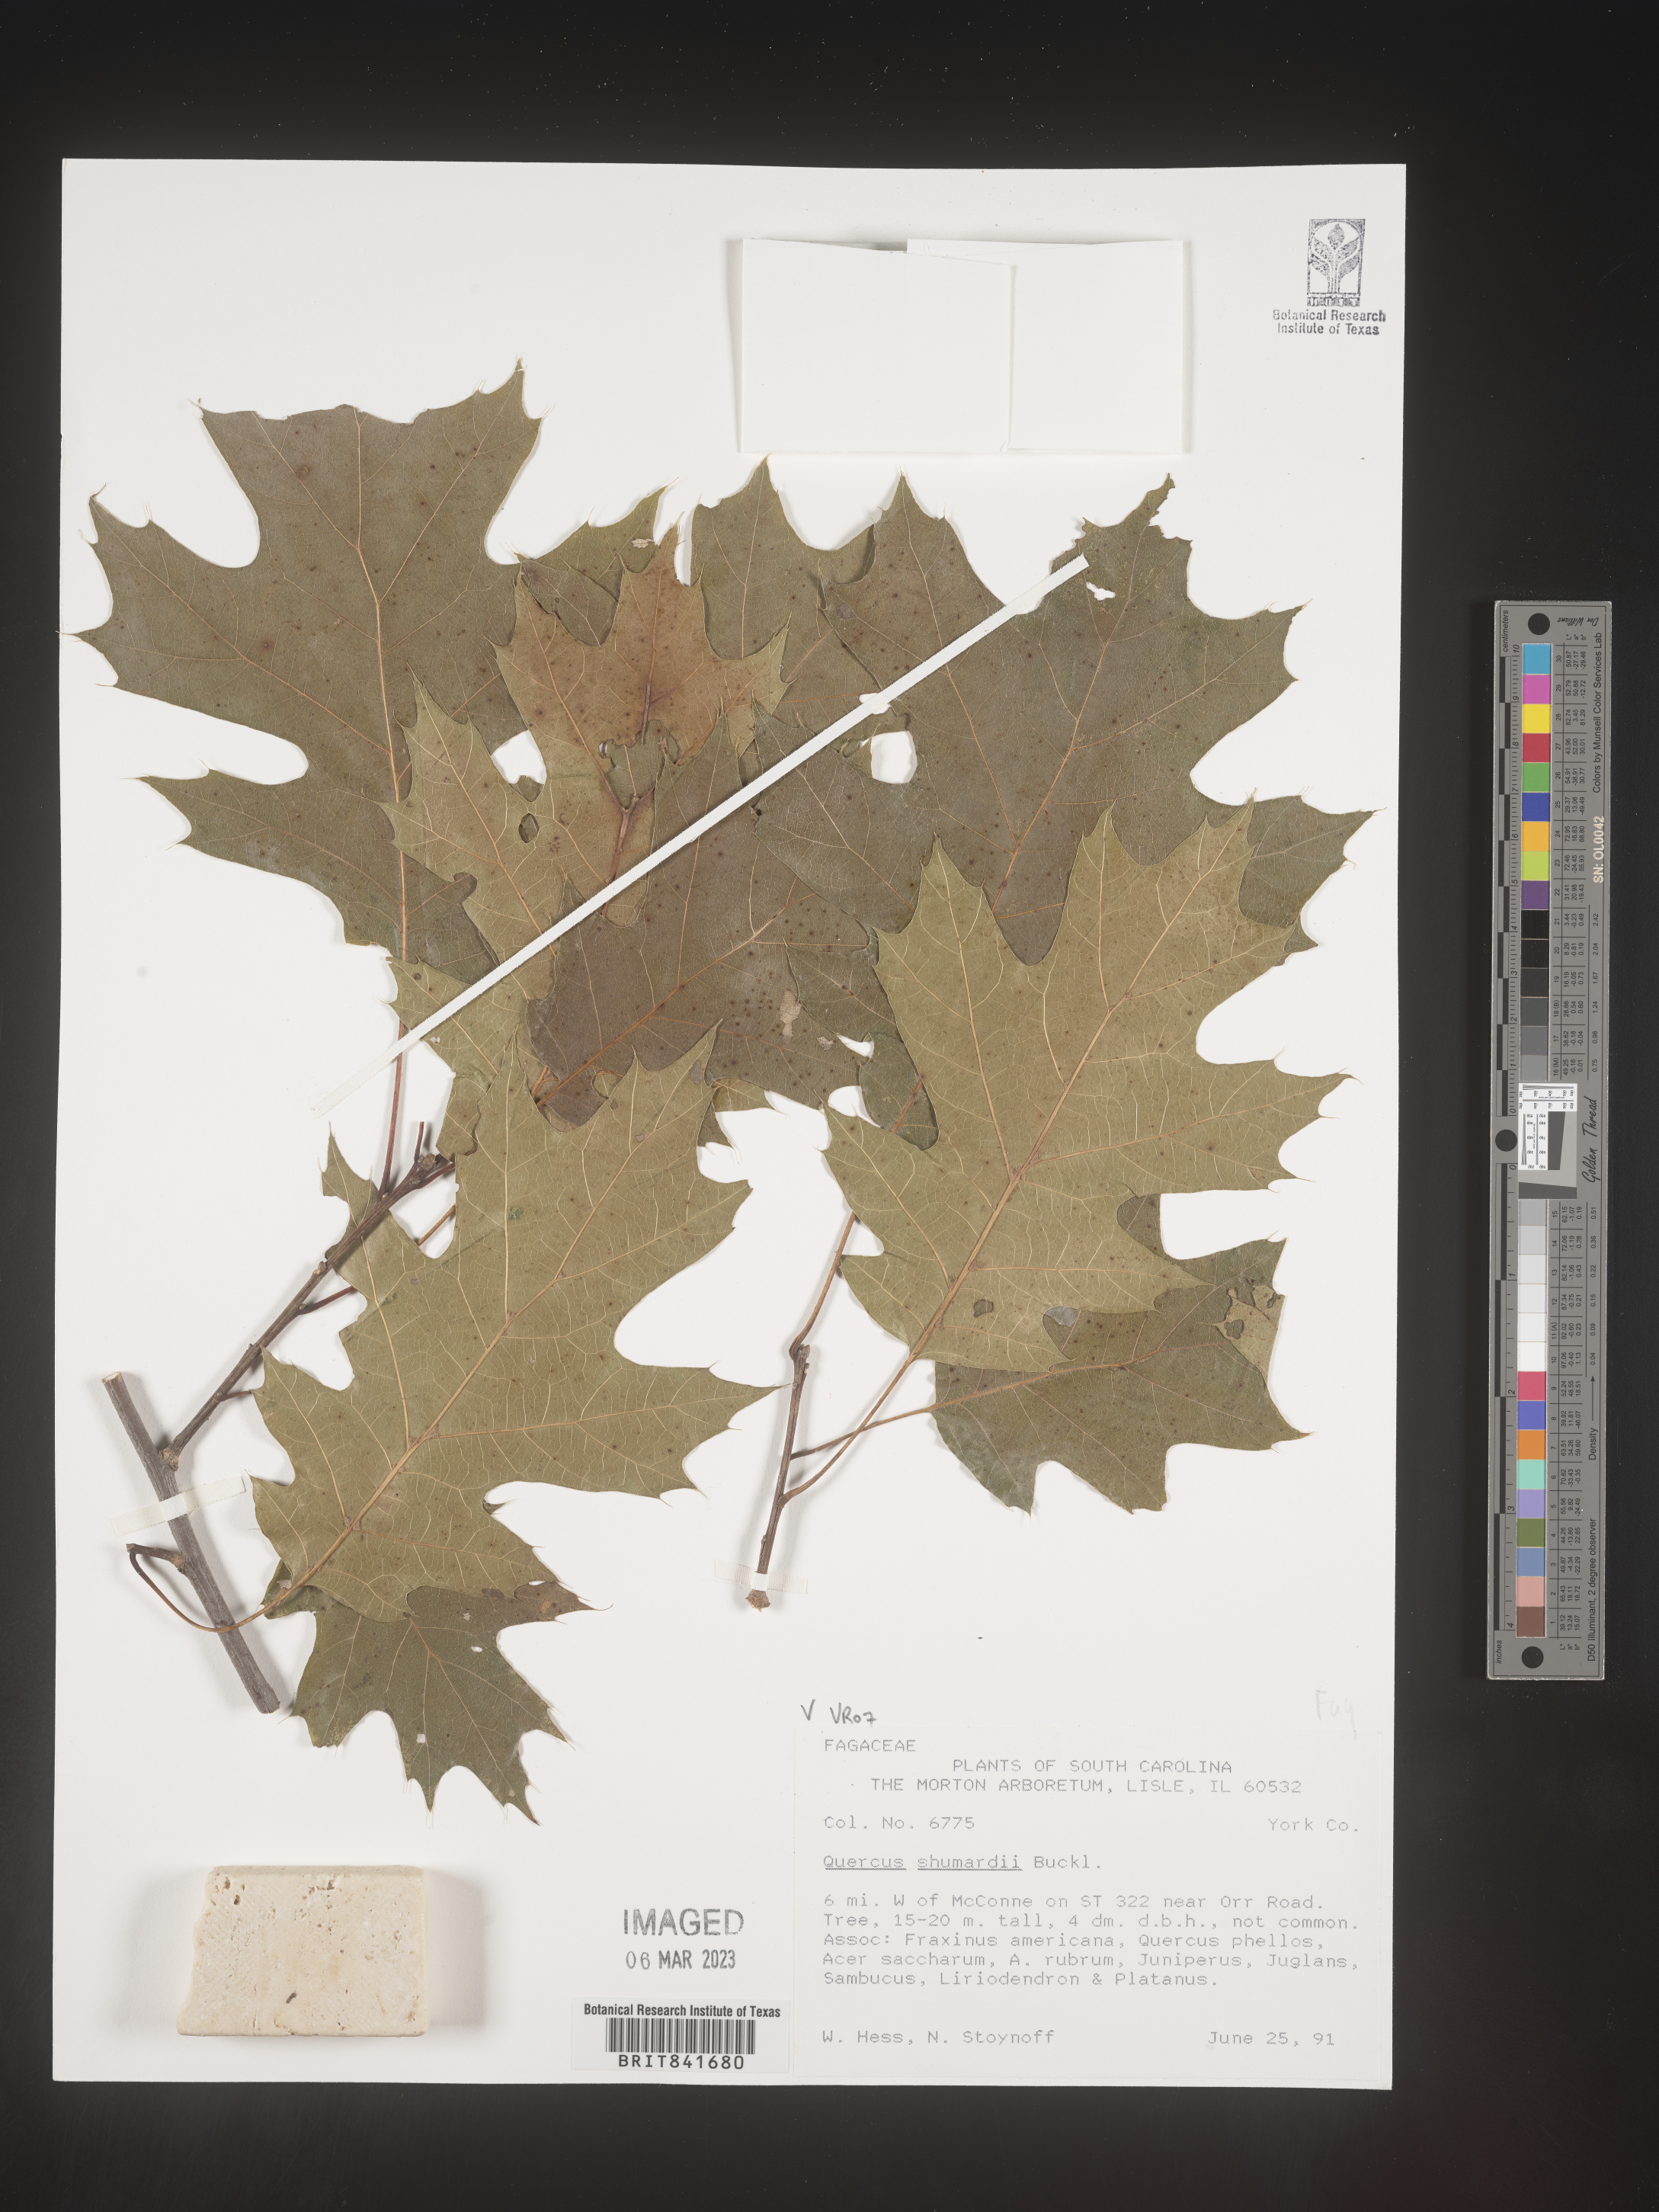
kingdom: Plantae
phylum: Tracheophyta
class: Magnoliopsida
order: Fagales
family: Fagaceae
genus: Quercus
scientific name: Quercus shumardii
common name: Shumard oak
